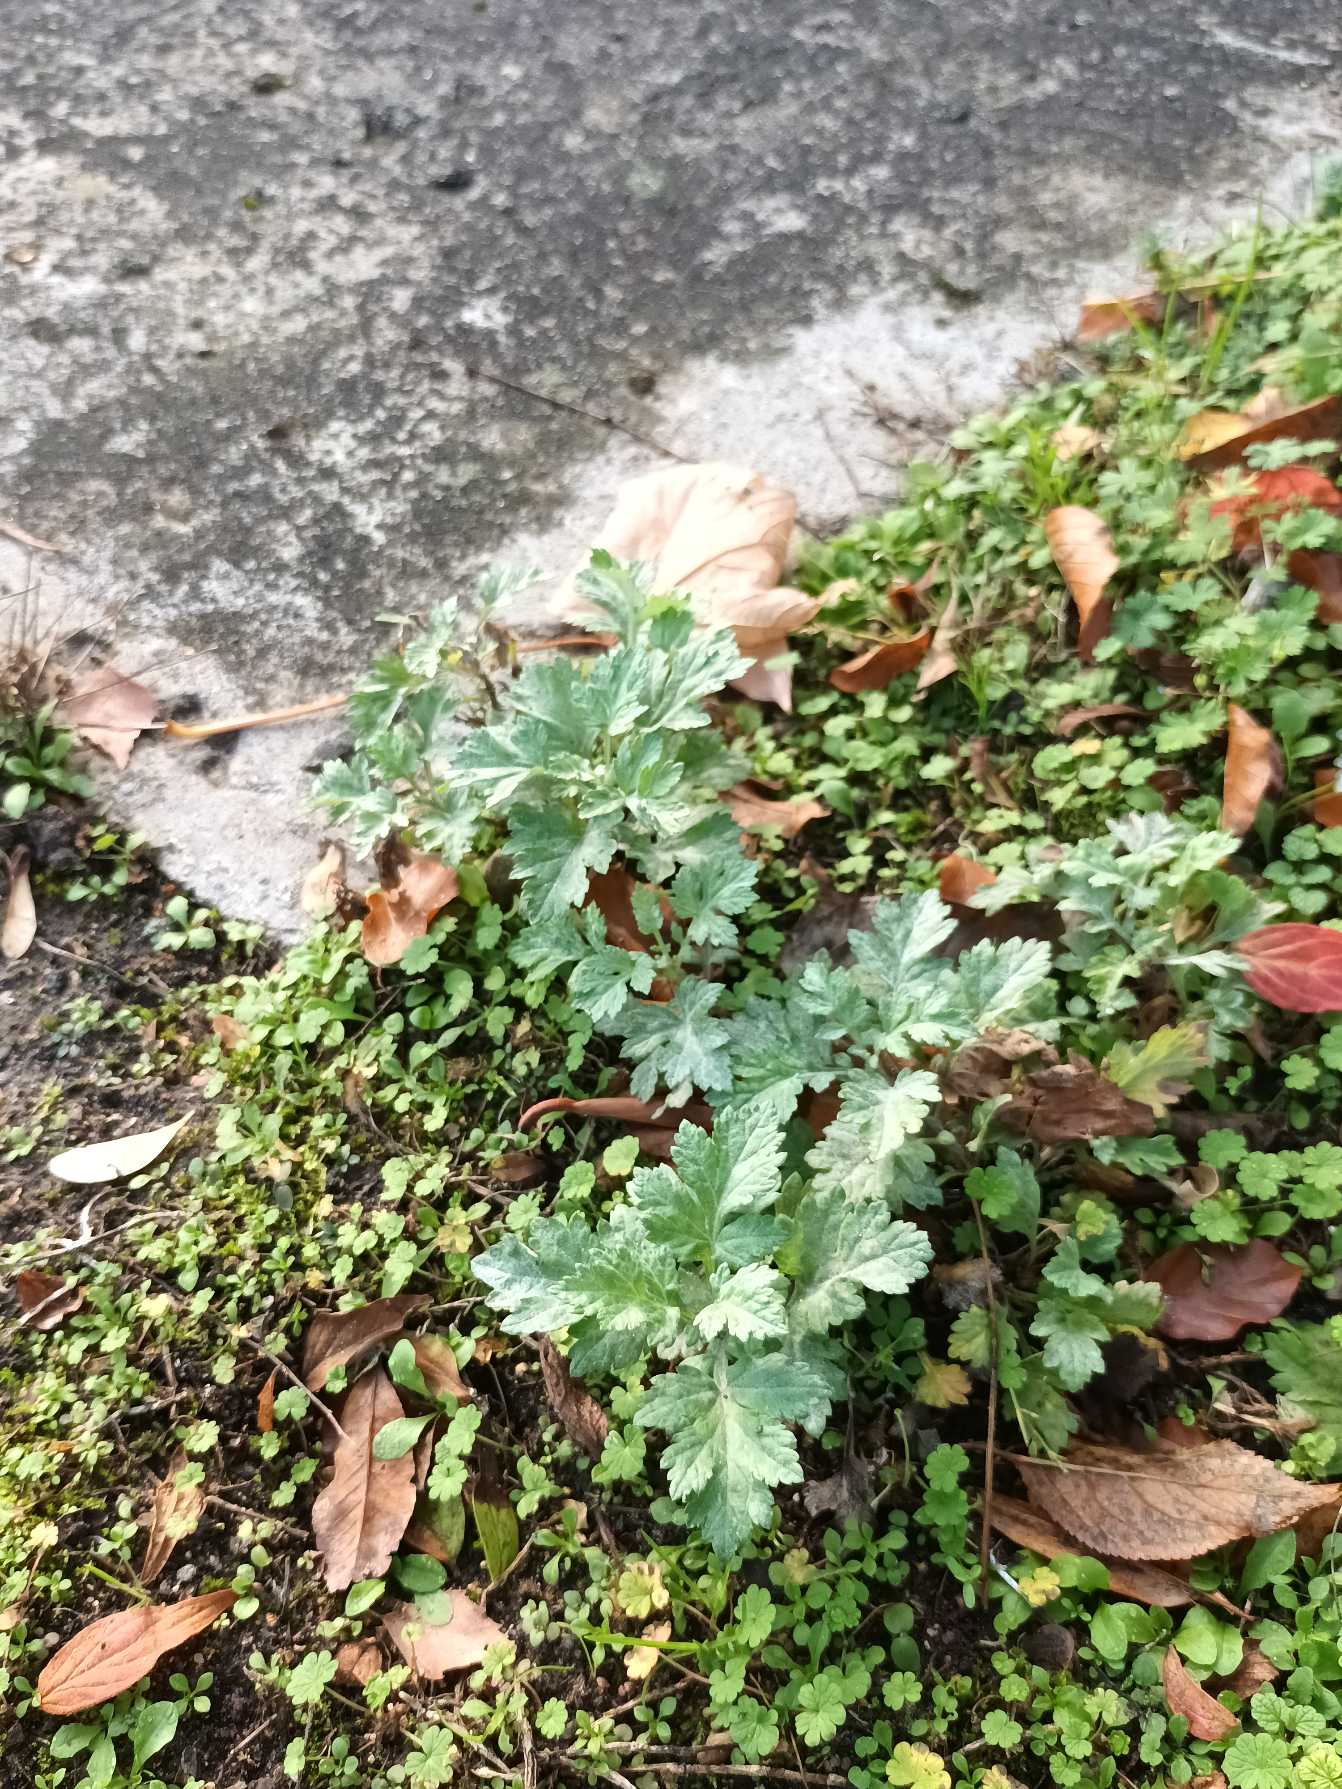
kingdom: Plantae
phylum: Tracheophyta
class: Magnoliopsida
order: Asterales
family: Asteraceae
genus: Artemisia
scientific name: Artemisia vulgaris
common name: Grå-bynke
